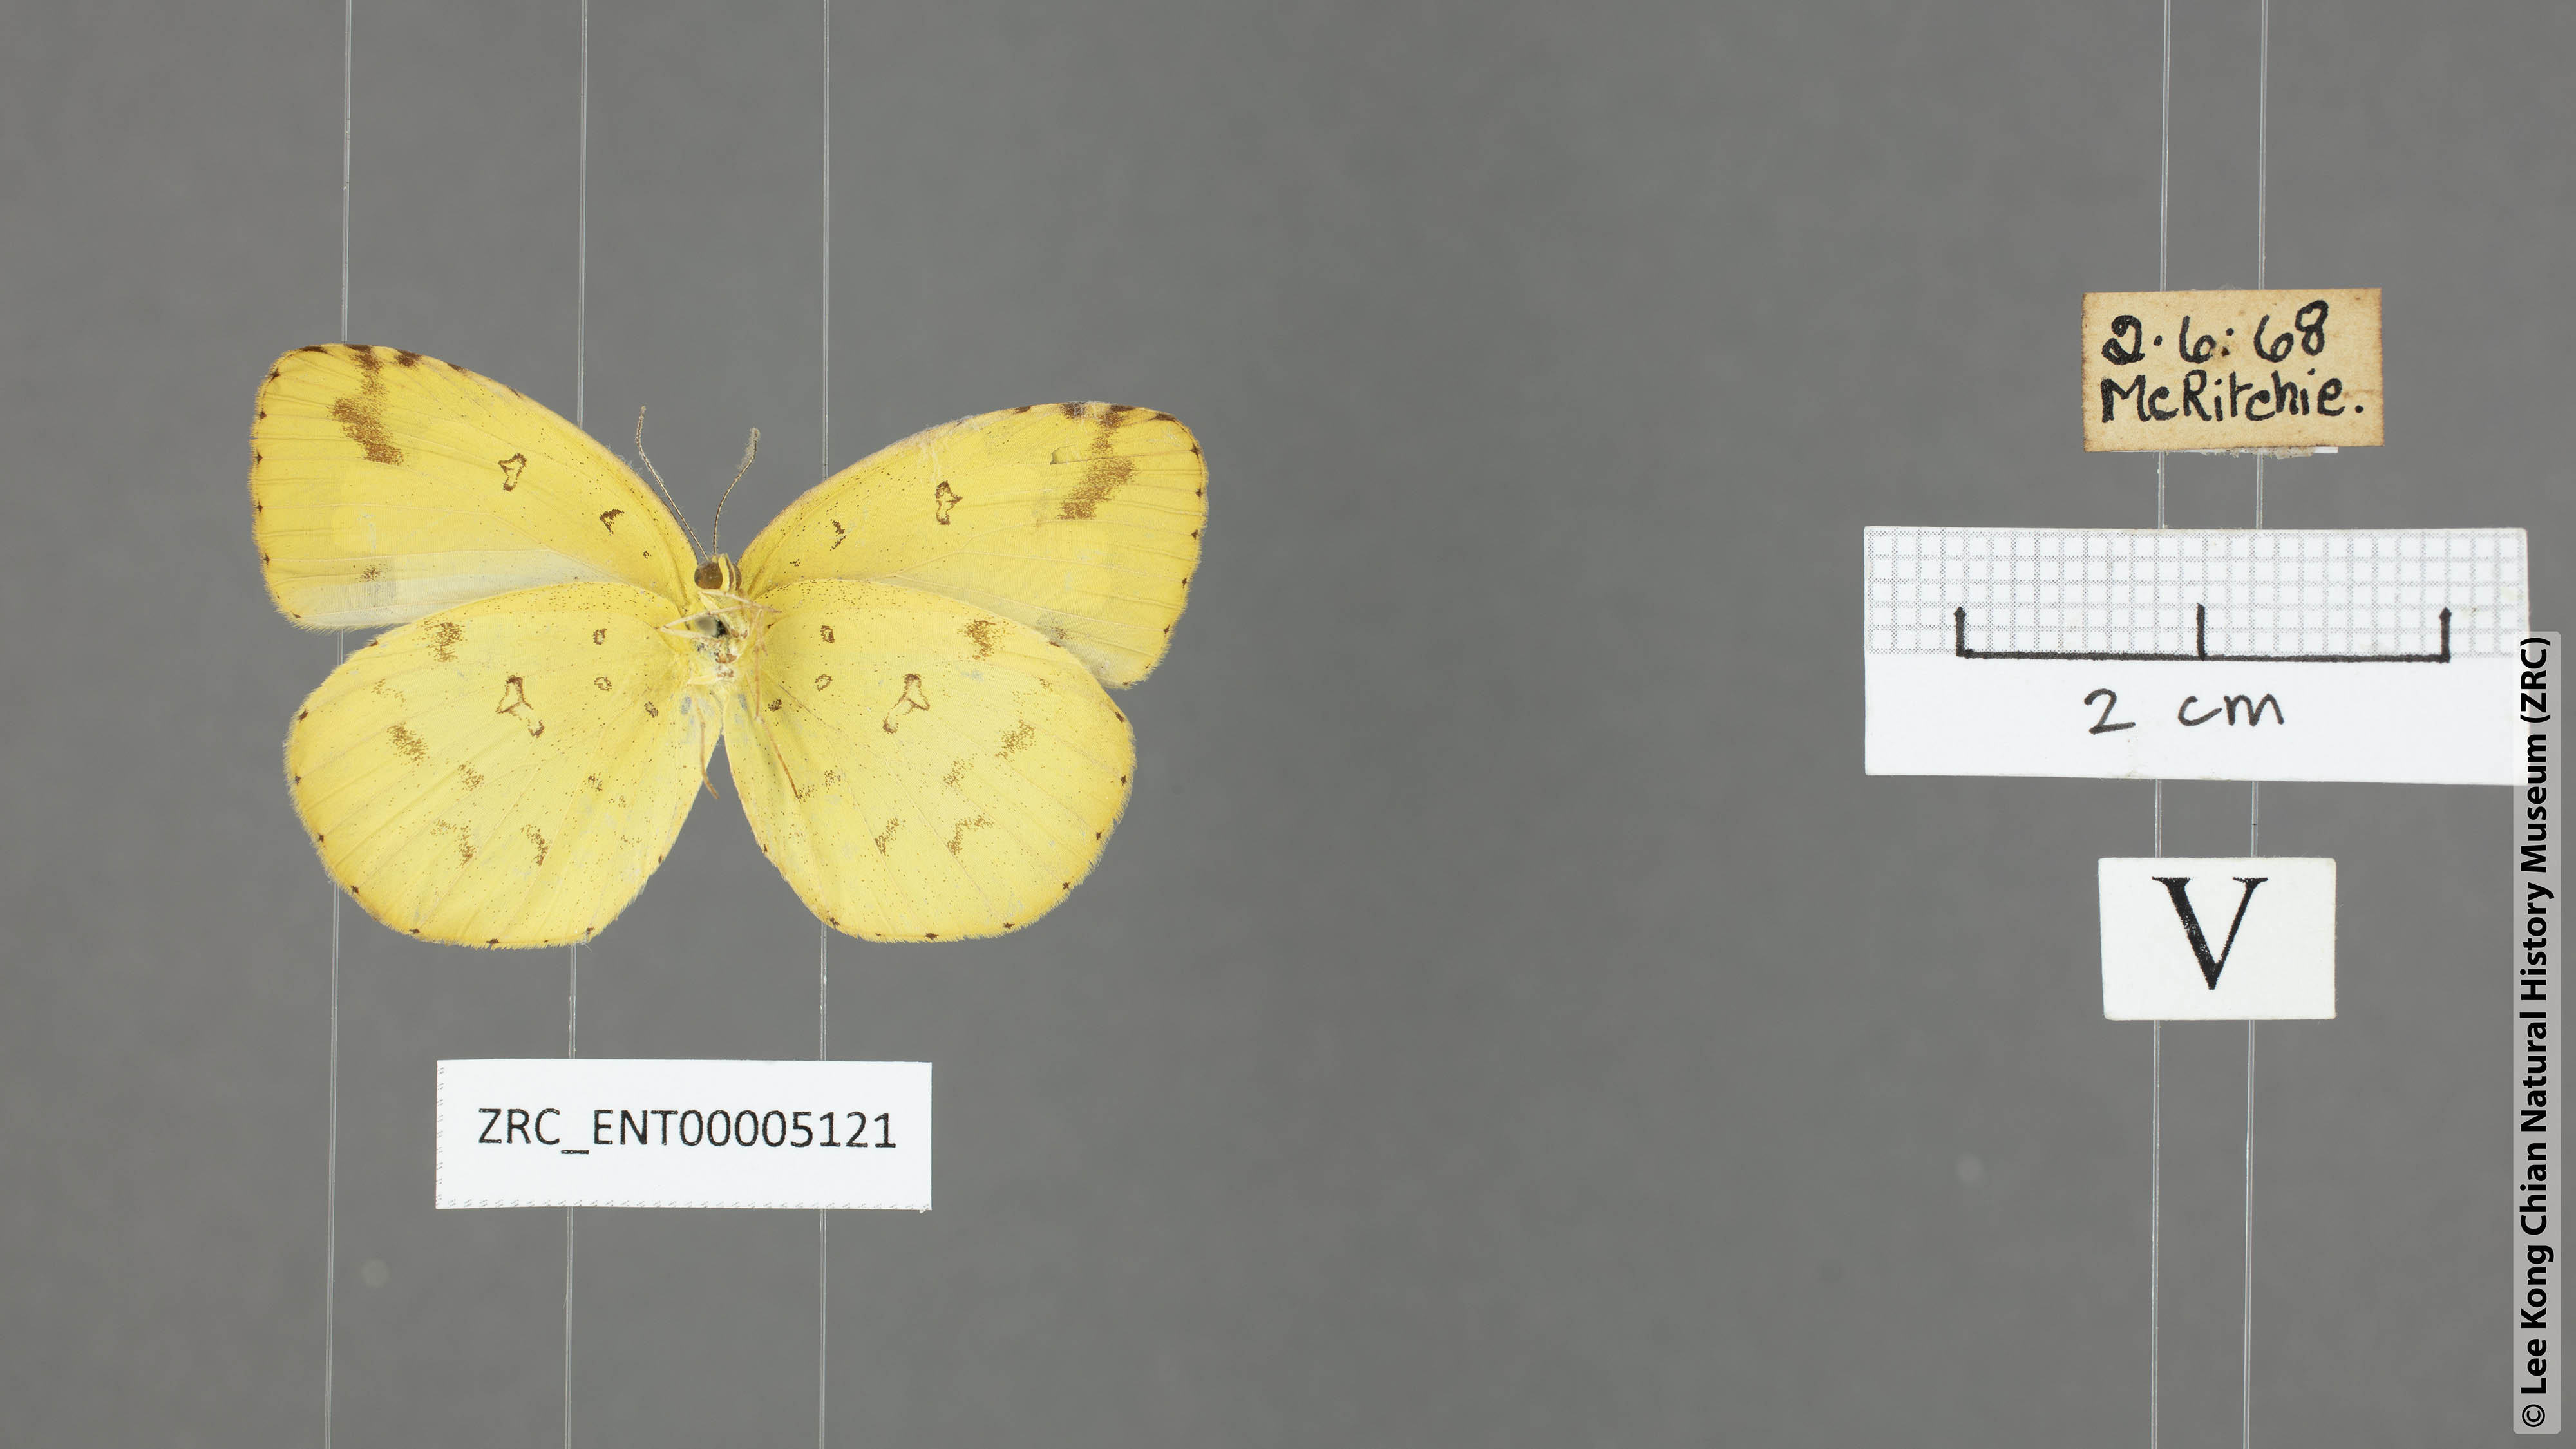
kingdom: Animalia
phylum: Arthropoda
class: Insecta
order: Lepidoptera
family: Pieridae
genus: Eurema
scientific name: Eurema andersoni
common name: One-spot yellow grass
